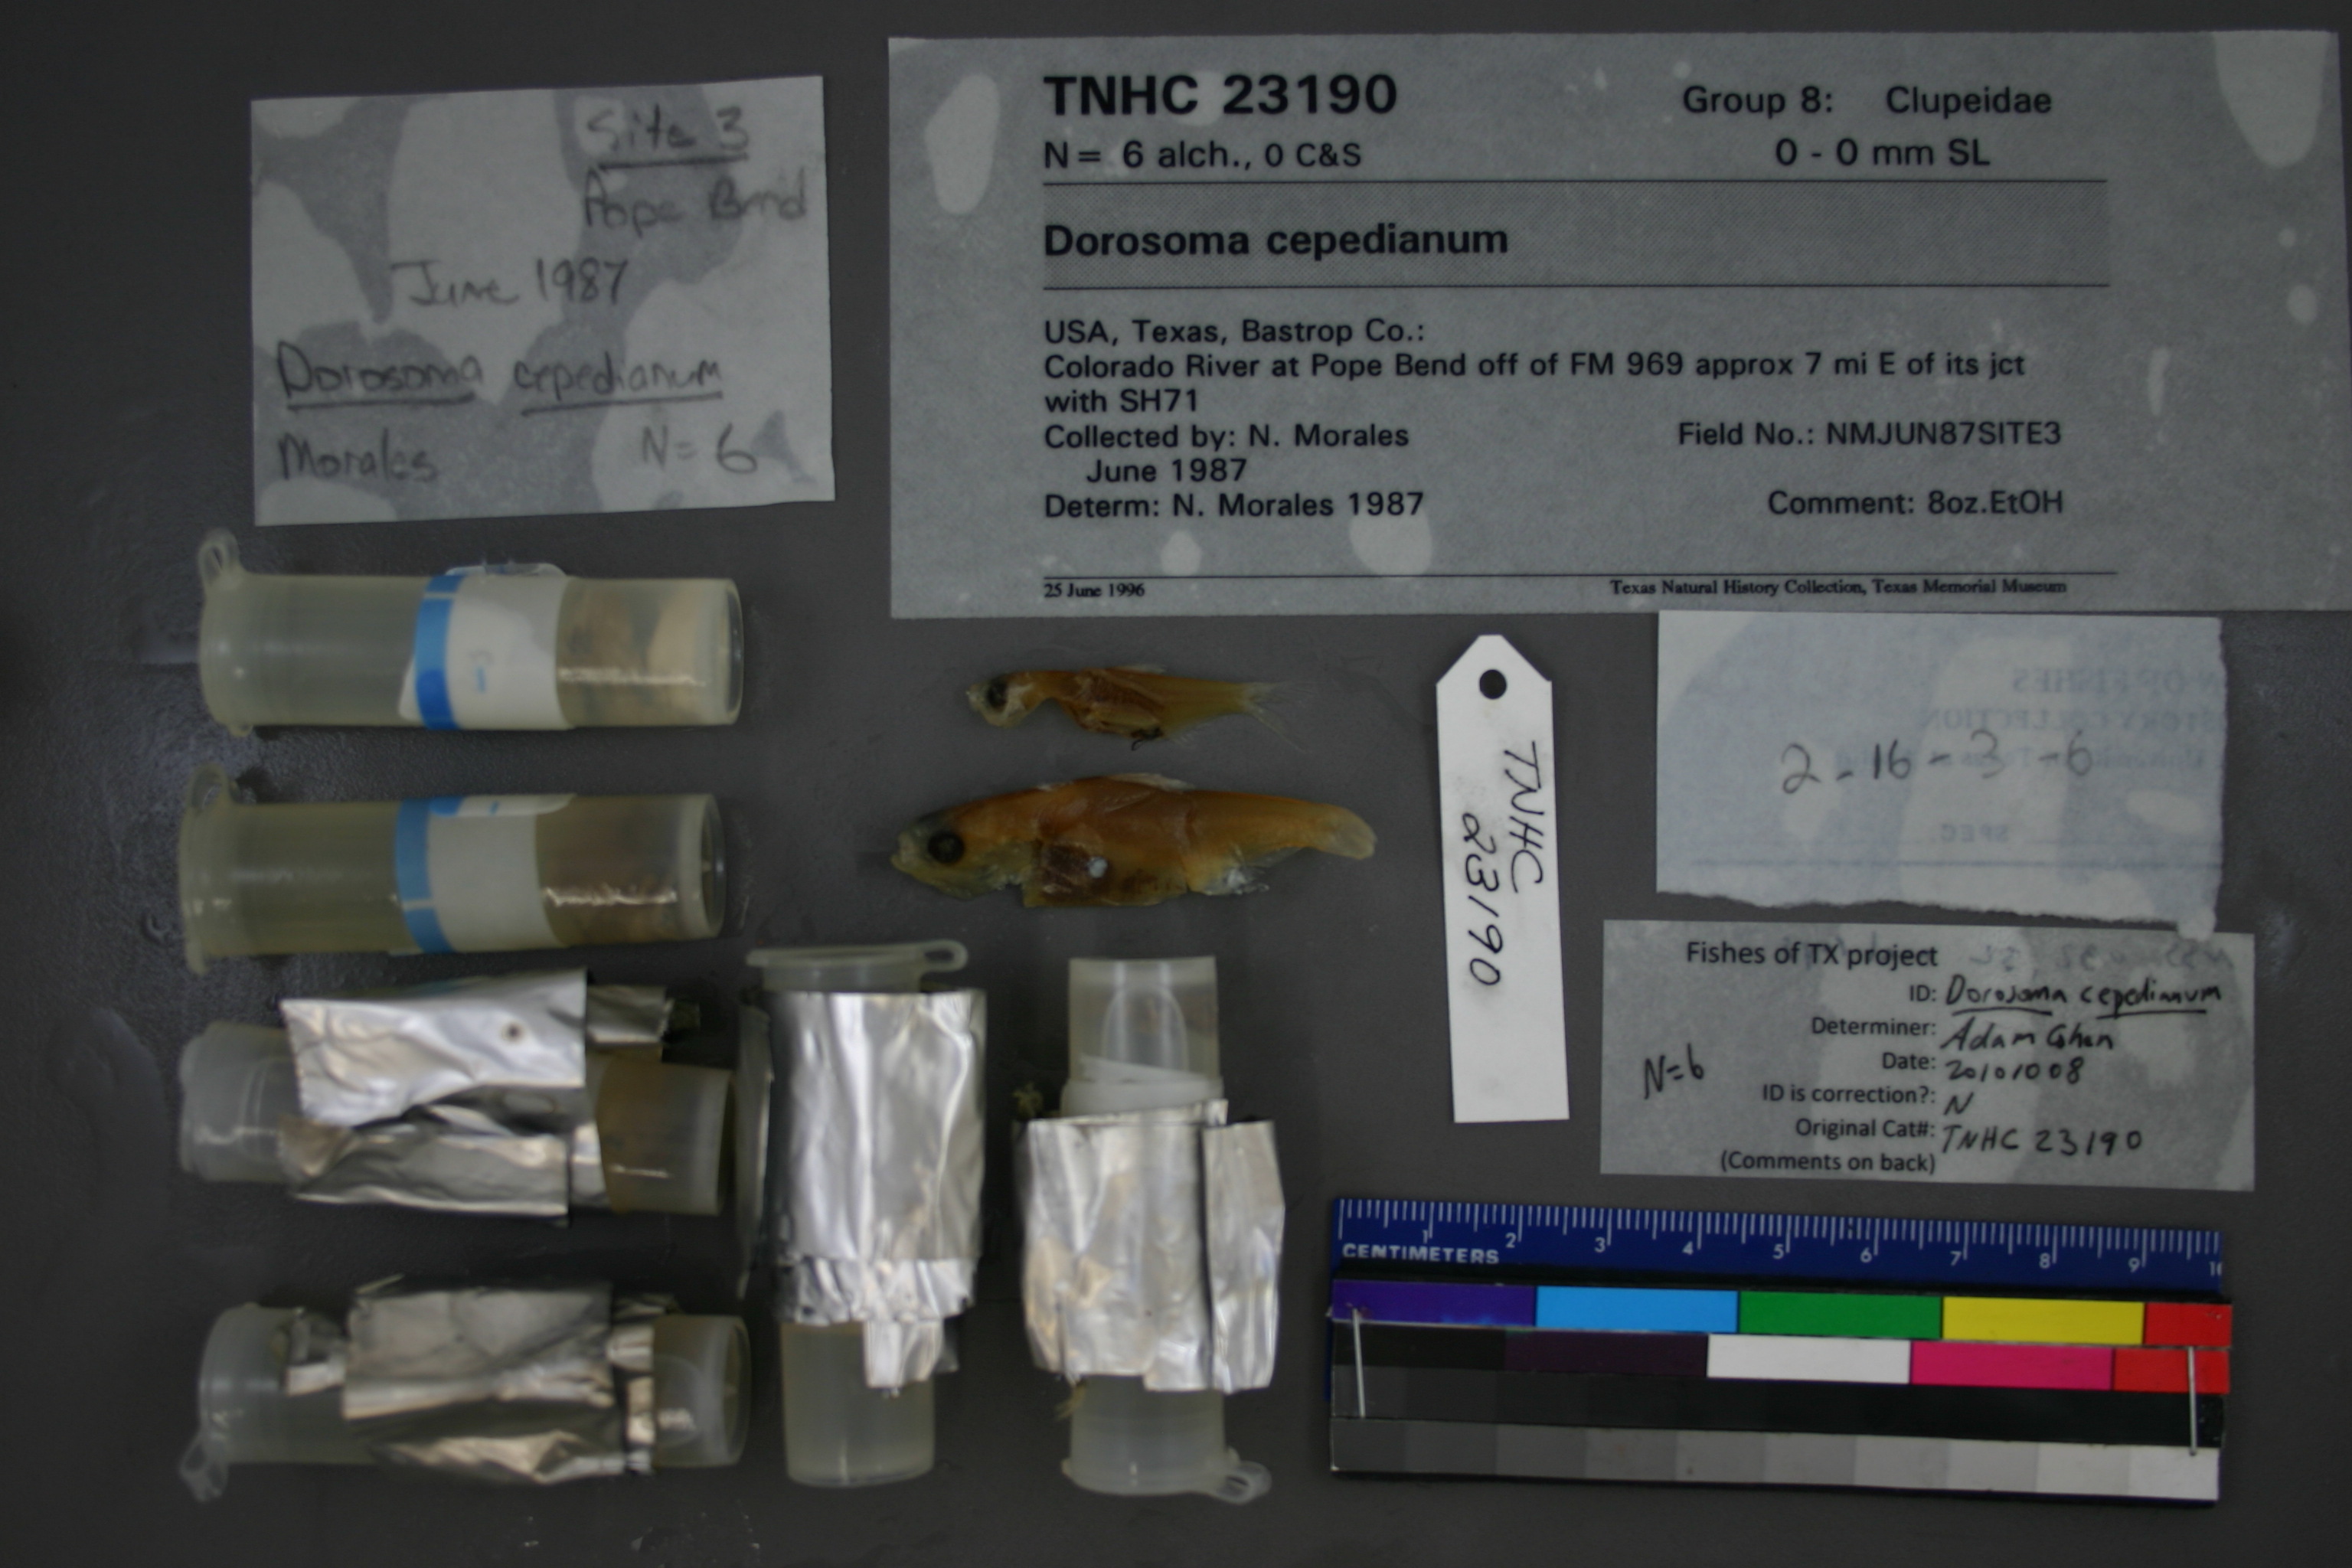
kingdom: Animalia
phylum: Chordata
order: Clupeiformes
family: Clupeidae
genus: Dorosoma
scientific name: Dorosoma cepedianum
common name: Gizzard shad
